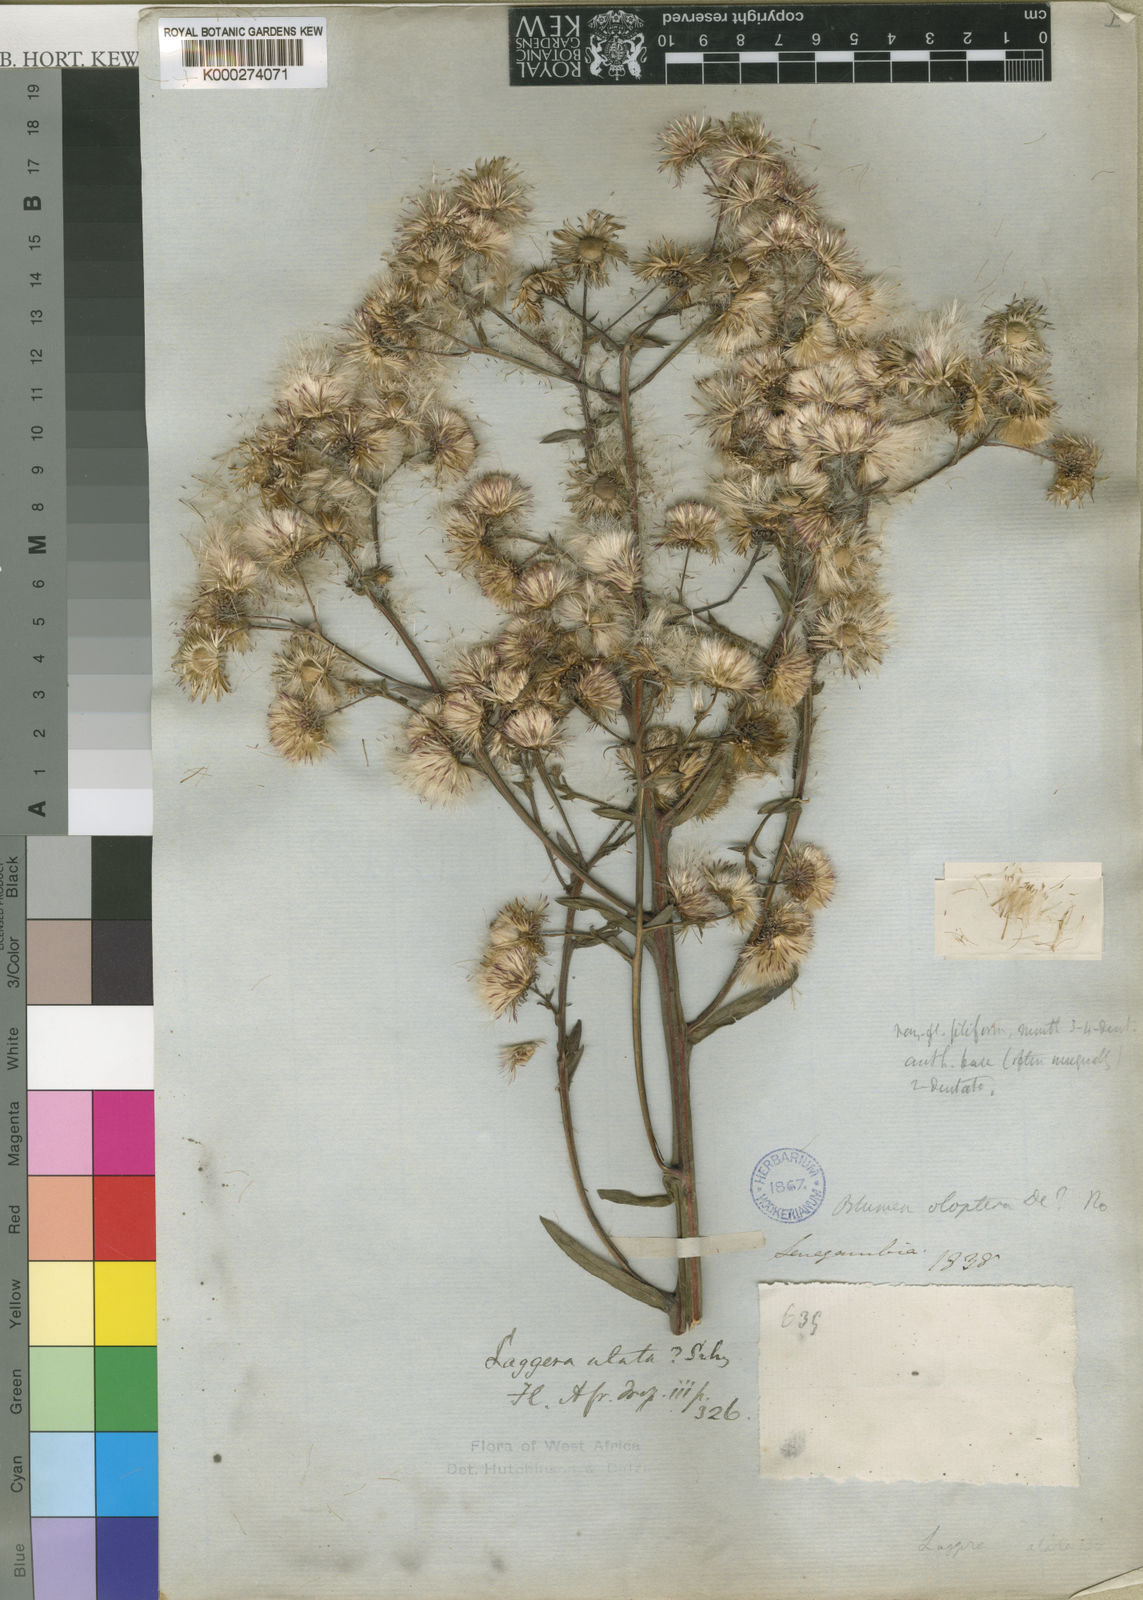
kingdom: Plantae
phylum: Tracheophyta
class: Magnoliopsida
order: Asterales
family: Asteraceae
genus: Laggera
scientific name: Laggera heudelotii
